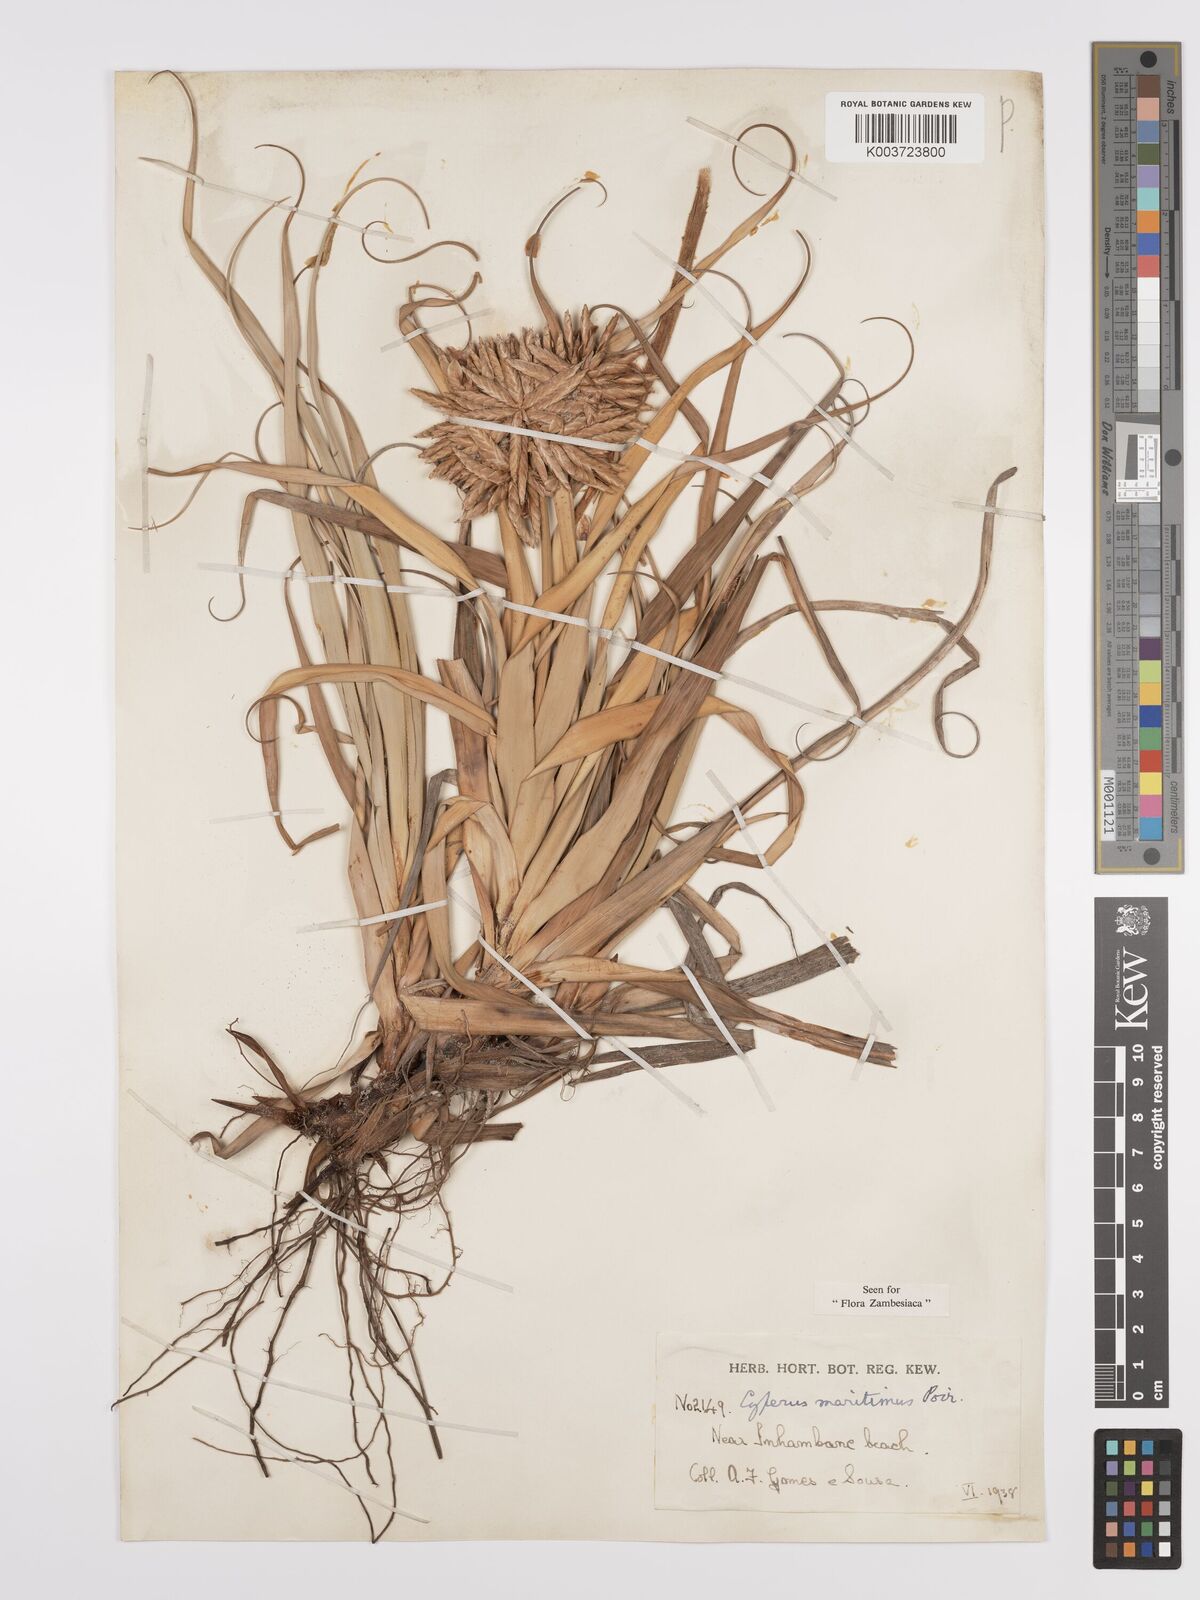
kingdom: Plantae
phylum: Tracheophyta
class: Liliopsida
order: Poales
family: Cyperaceae
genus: Cyperus
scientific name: Cyperus crassipes
